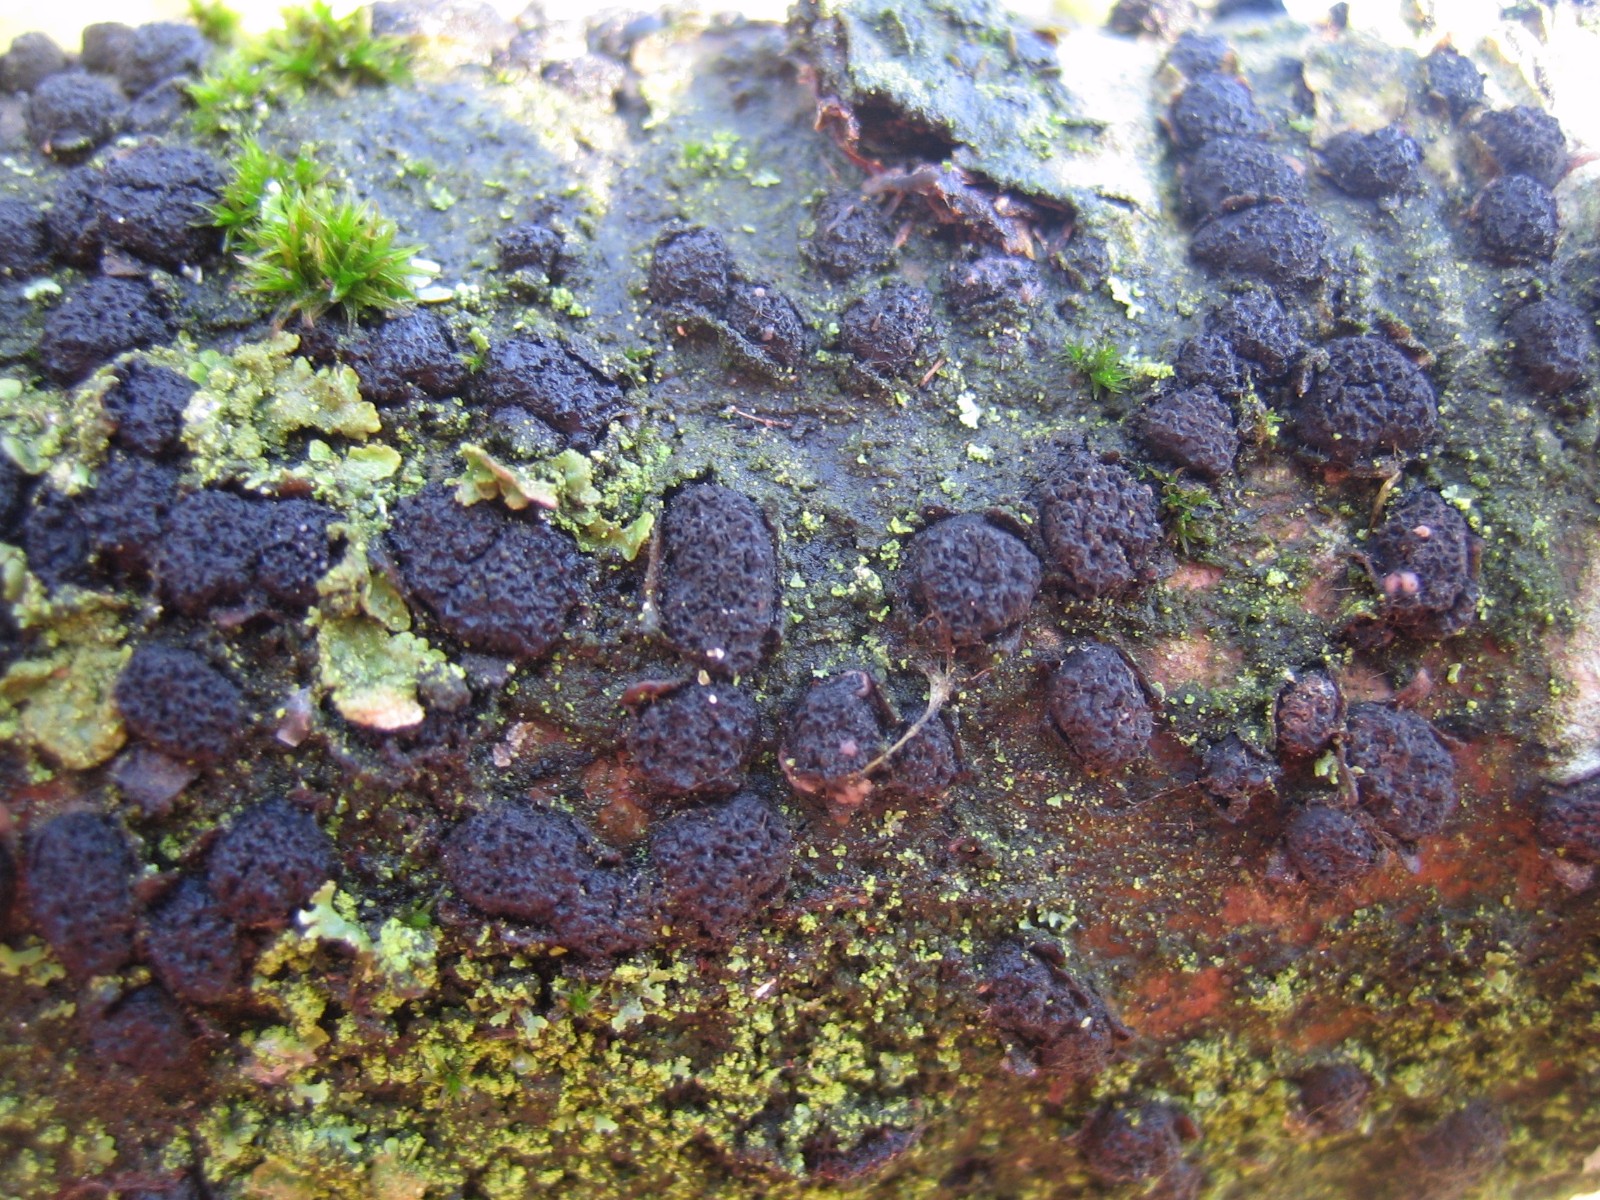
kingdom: Fungi
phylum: Ascomycota
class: Sordariomycetes
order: Xylariales
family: Diatrypaceae
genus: Diatrypella
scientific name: Diatrypella quercina
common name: ege-kulskorpe
